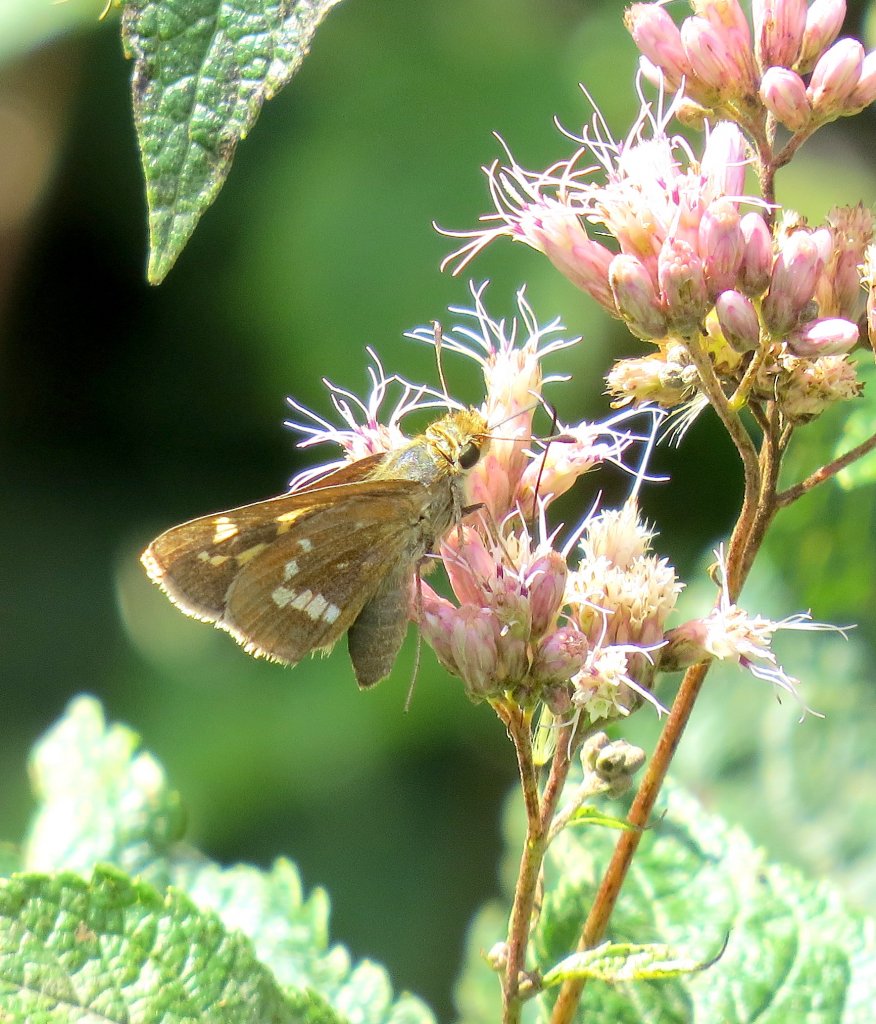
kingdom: Animalia
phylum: Arthropoda
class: Insecta
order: Lepidoptera
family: Hesperiidae
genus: Hesperia
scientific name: Hesperia leonardus
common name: Leonard's Skipper
